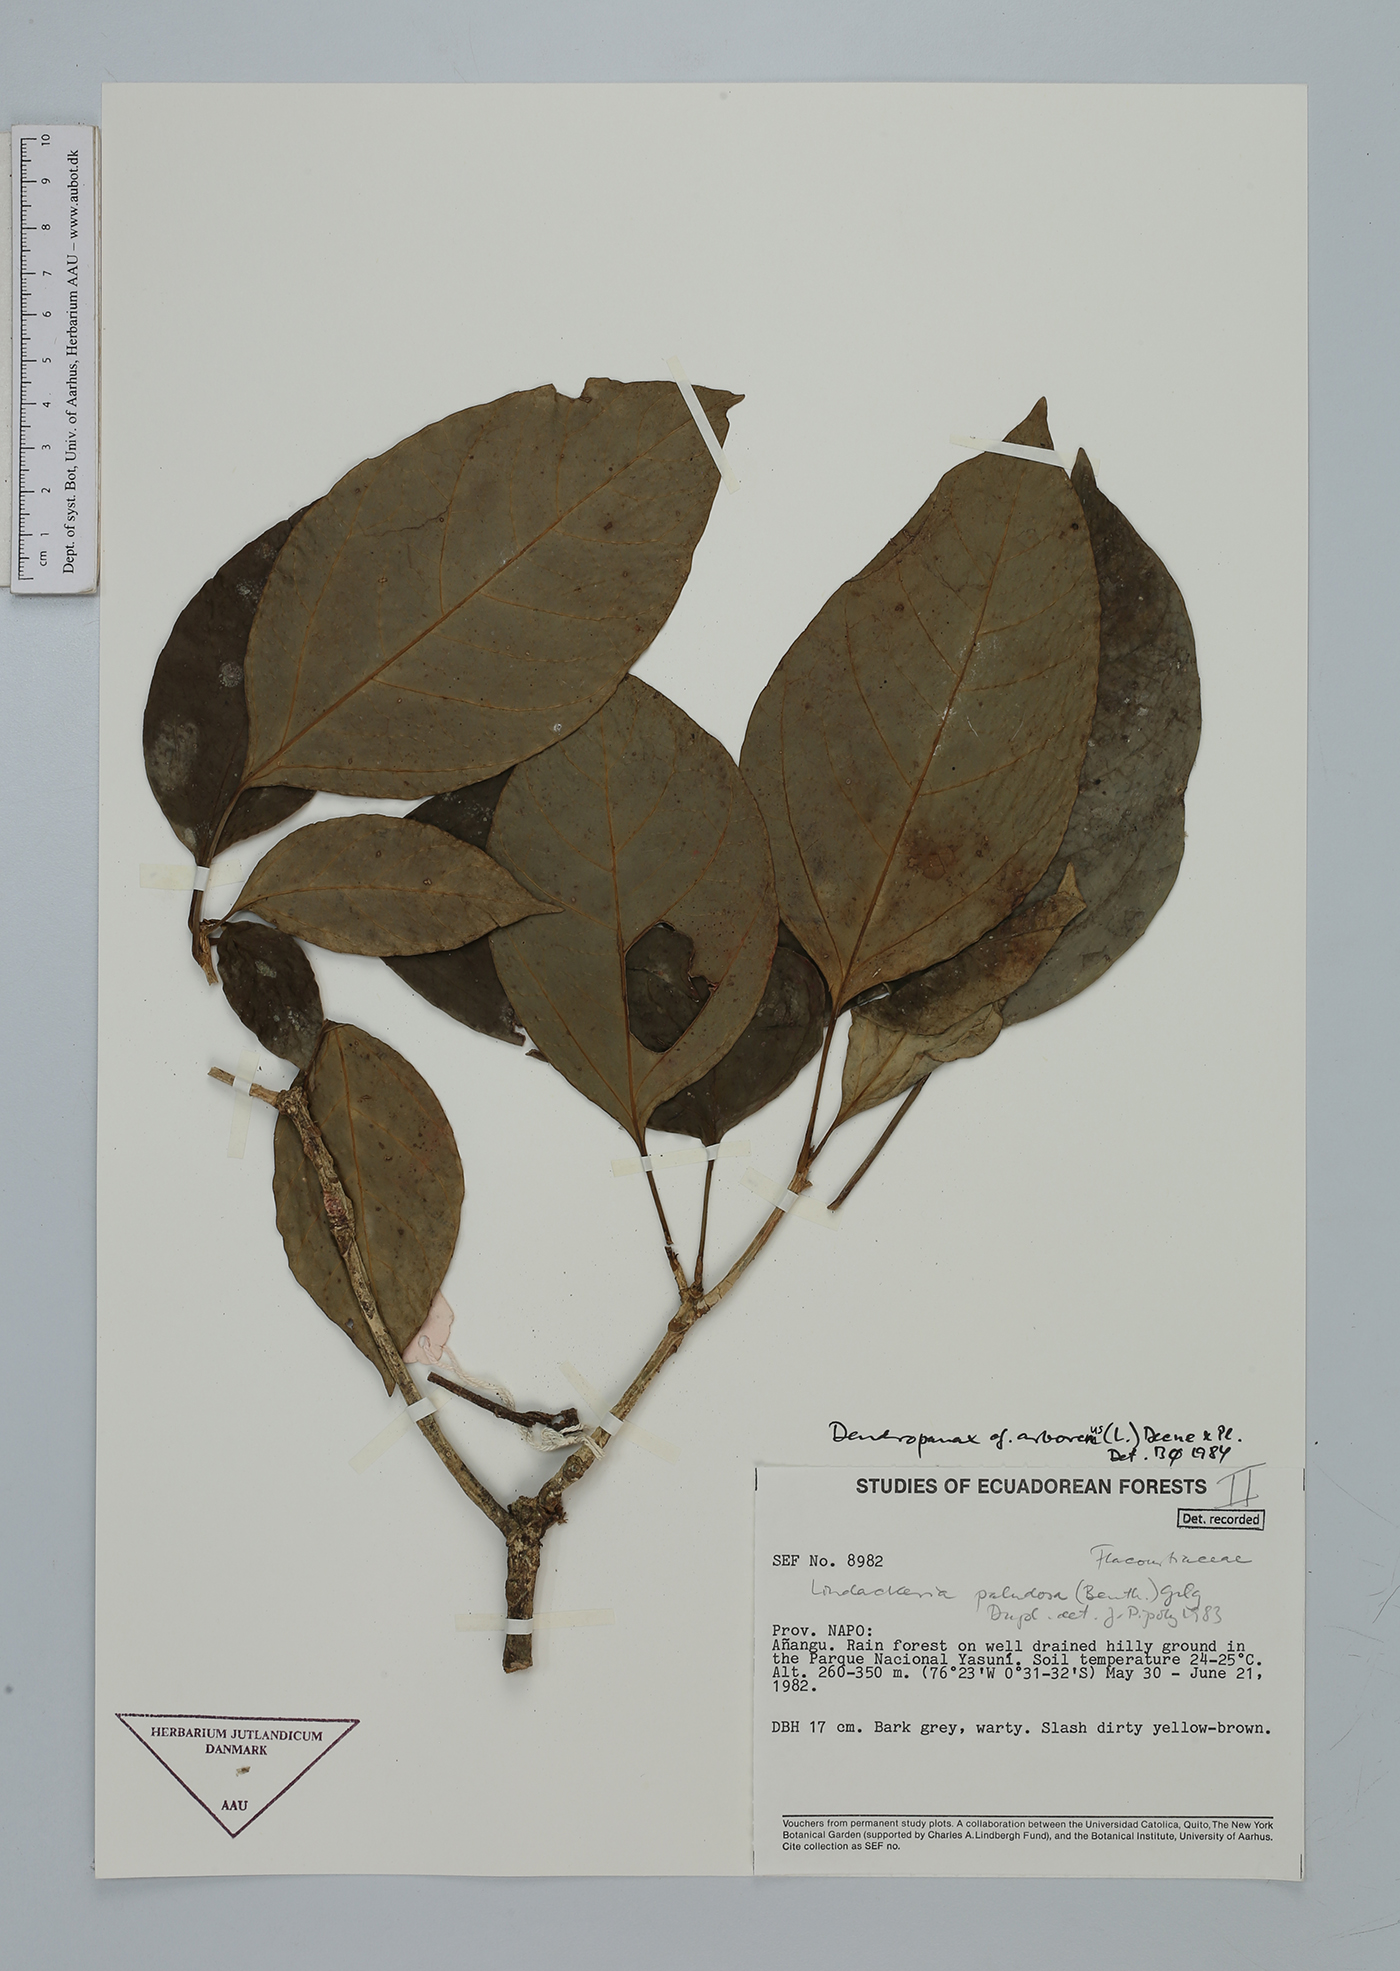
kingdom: Plantae
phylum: Tracheophyta
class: Magnoliopsida
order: Lamiales
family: Lamiaceae
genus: Salvia
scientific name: Salvia leucocephala
